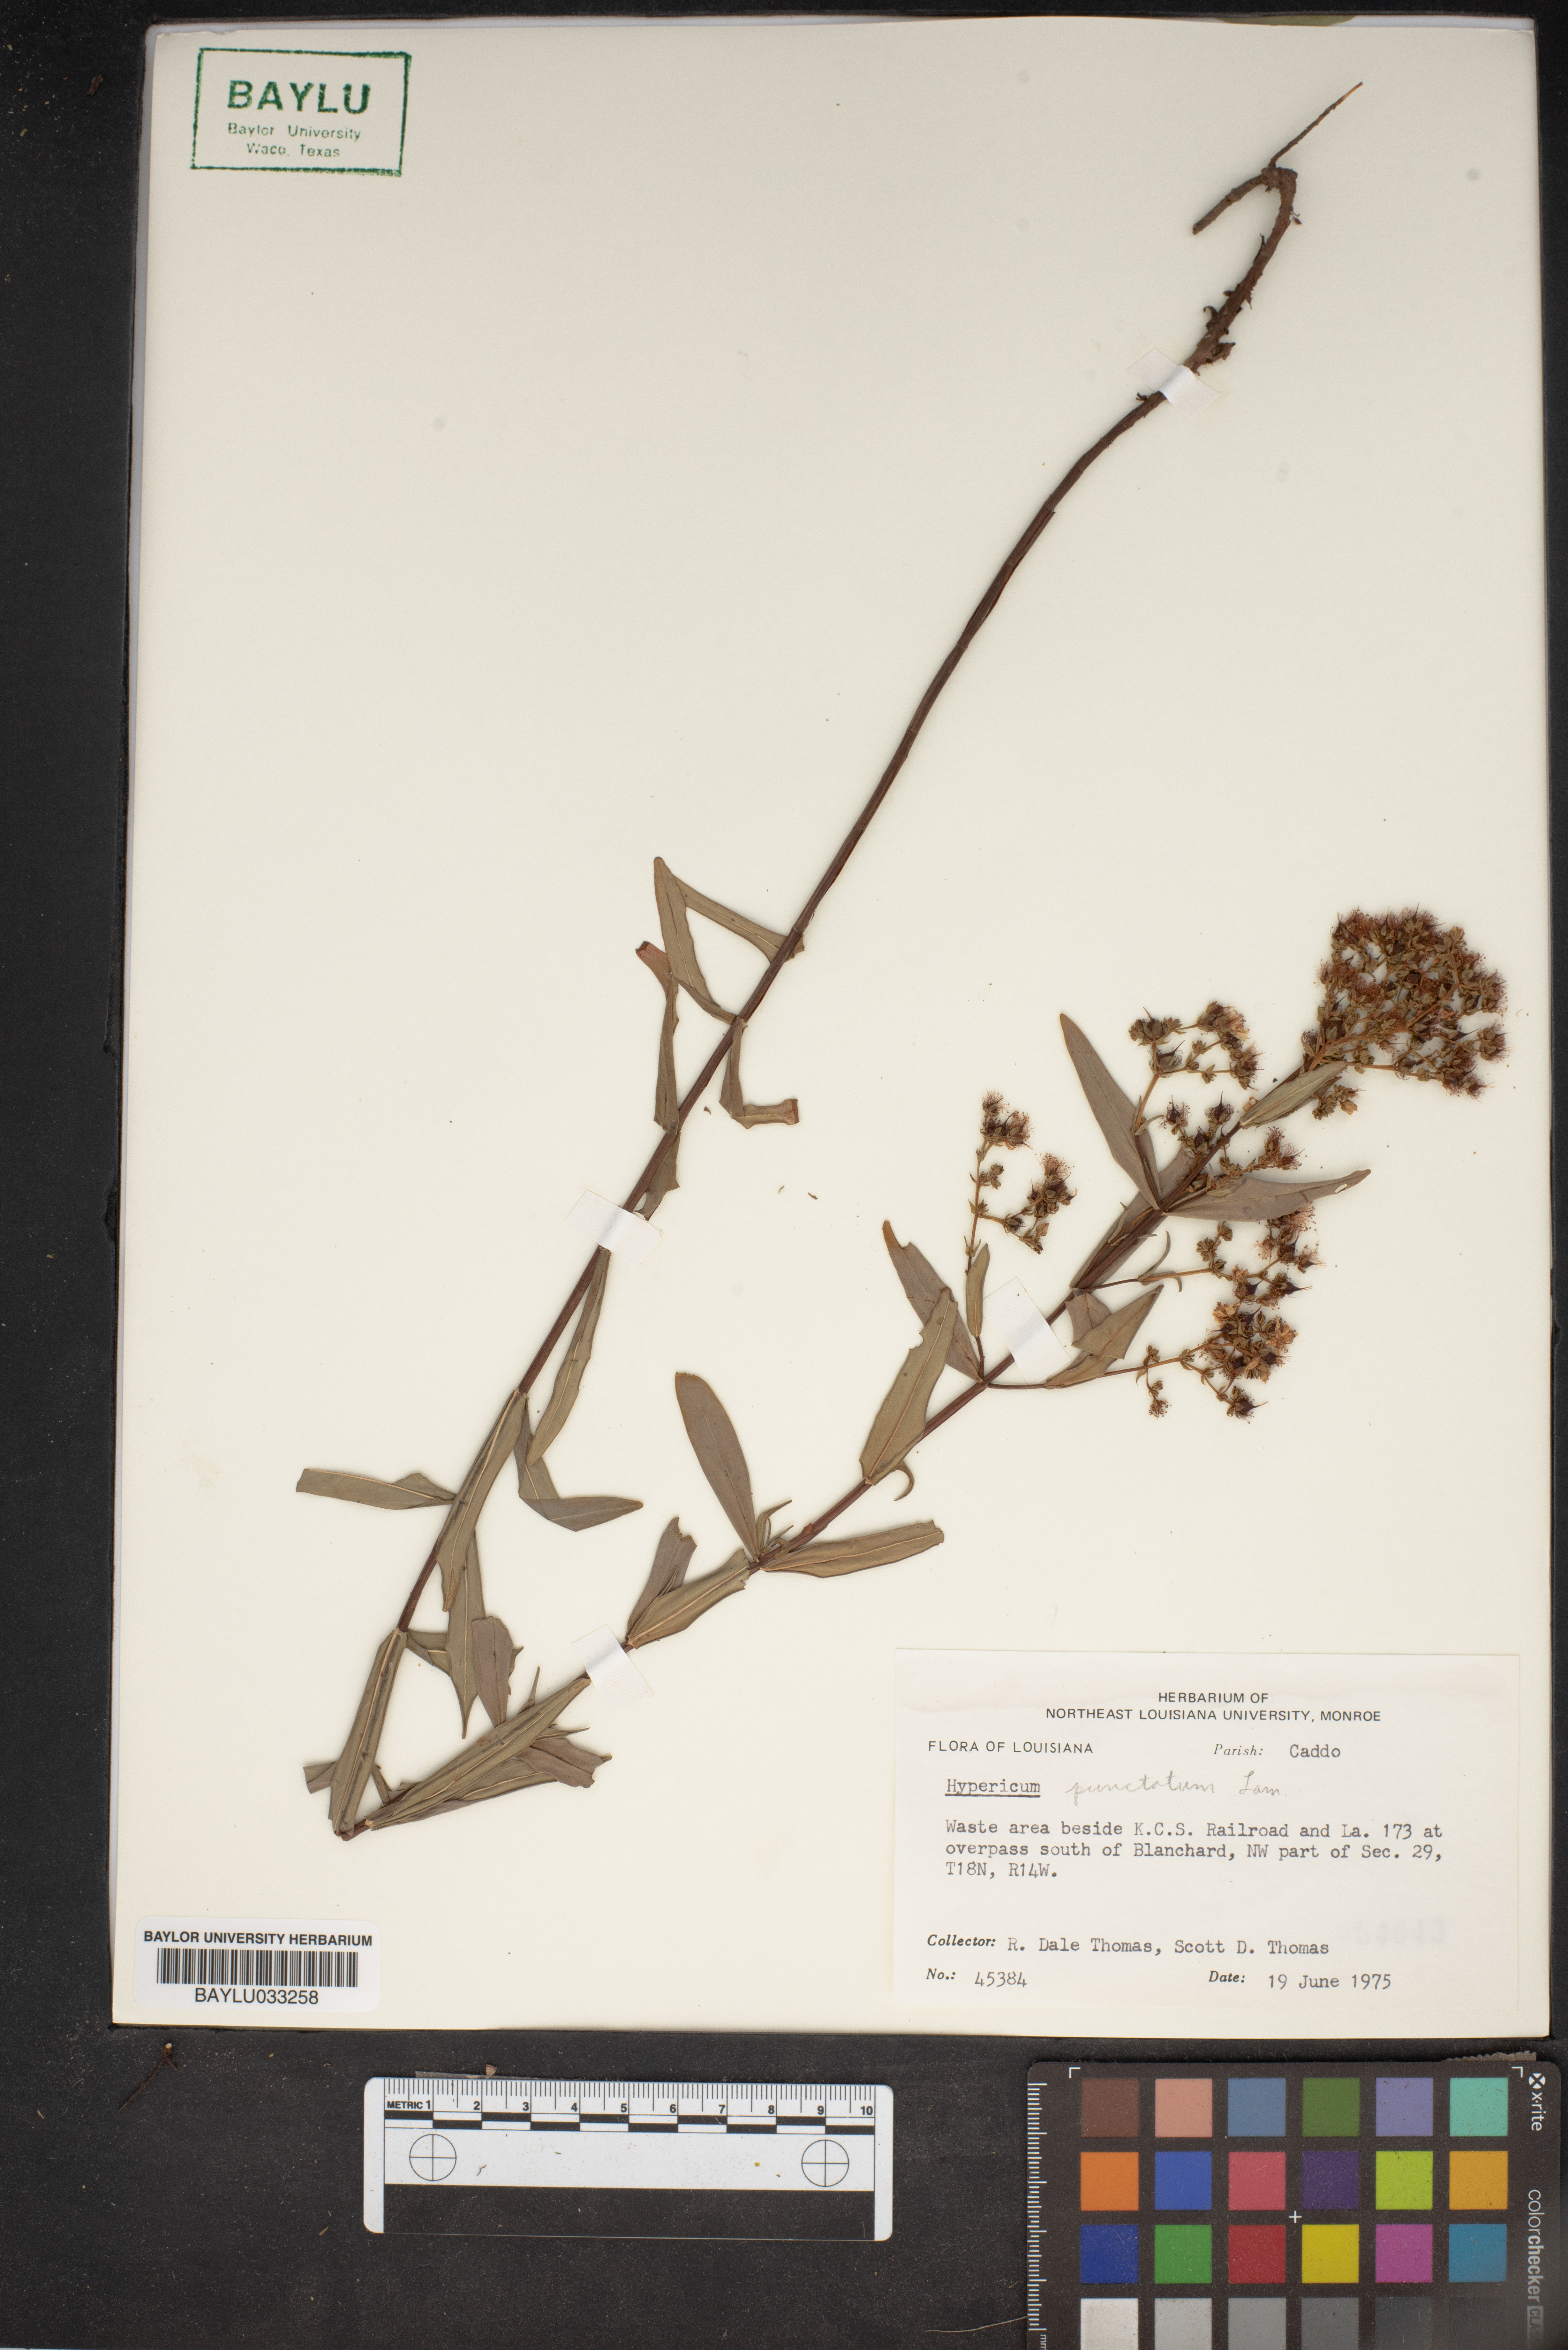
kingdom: Plantae
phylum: Tracheophyta
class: Magnoliopsida
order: Malpighiales
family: Hypericaceae
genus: Hypericum
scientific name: Hypericum punctatum
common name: Spotted st. john's-wort
